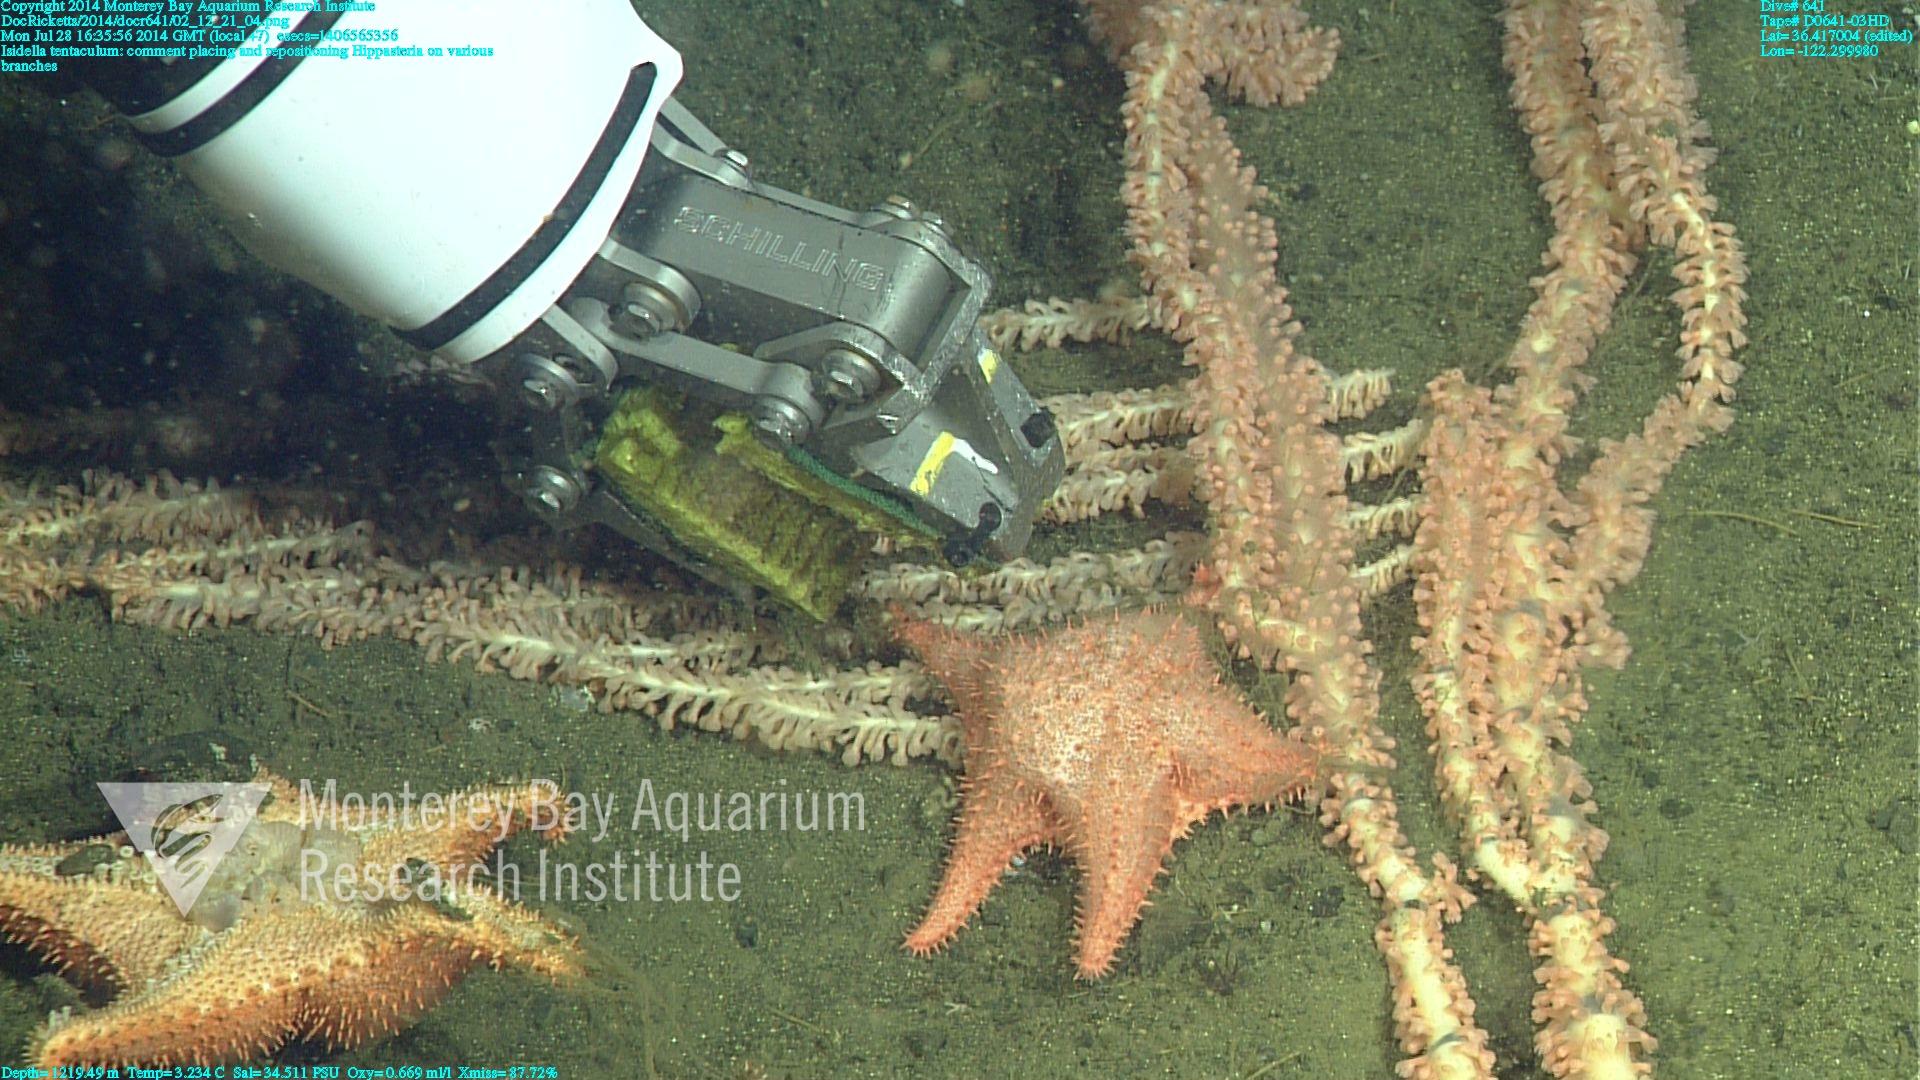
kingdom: Animalia
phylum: Cnidaria
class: Anthozoa
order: Scleralcyonacea
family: Keratoisididae
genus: Isidella
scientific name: Isidella tentaculum
